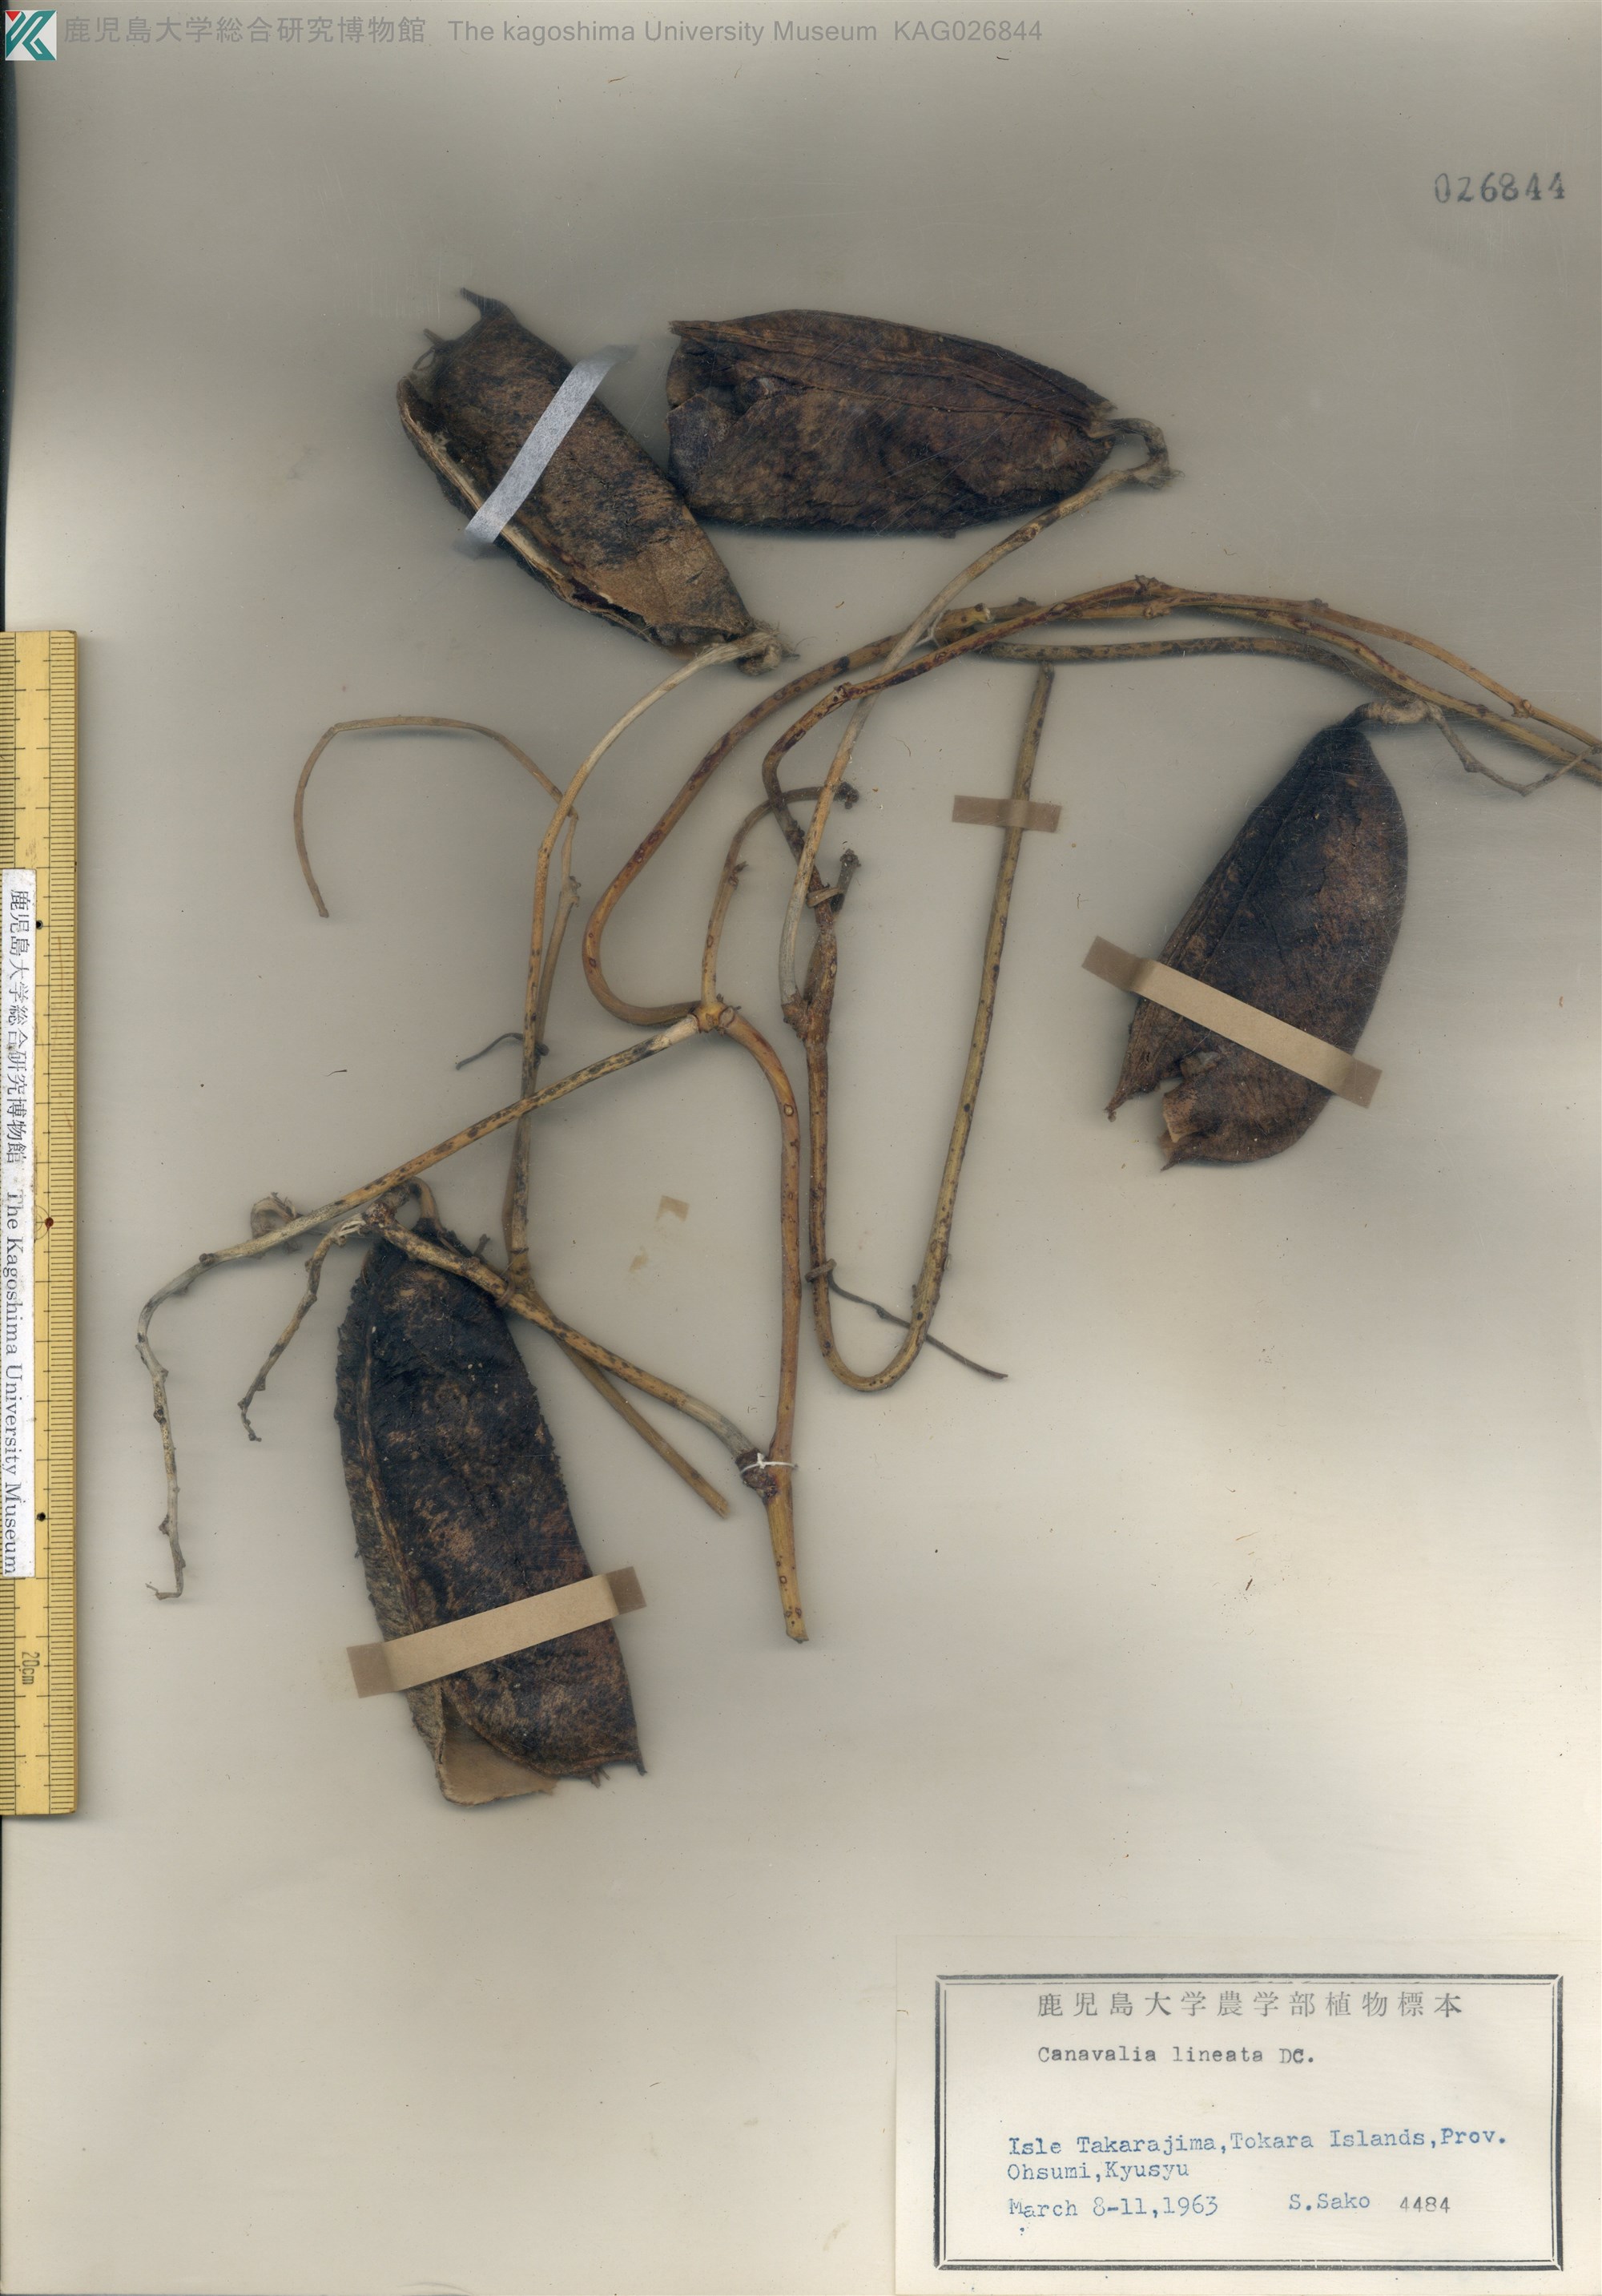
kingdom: Plantae
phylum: Tracheophyta
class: Magnoliopsida
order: Fabales
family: Fabaceae
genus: Canavalia
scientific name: Canavalia lineata
